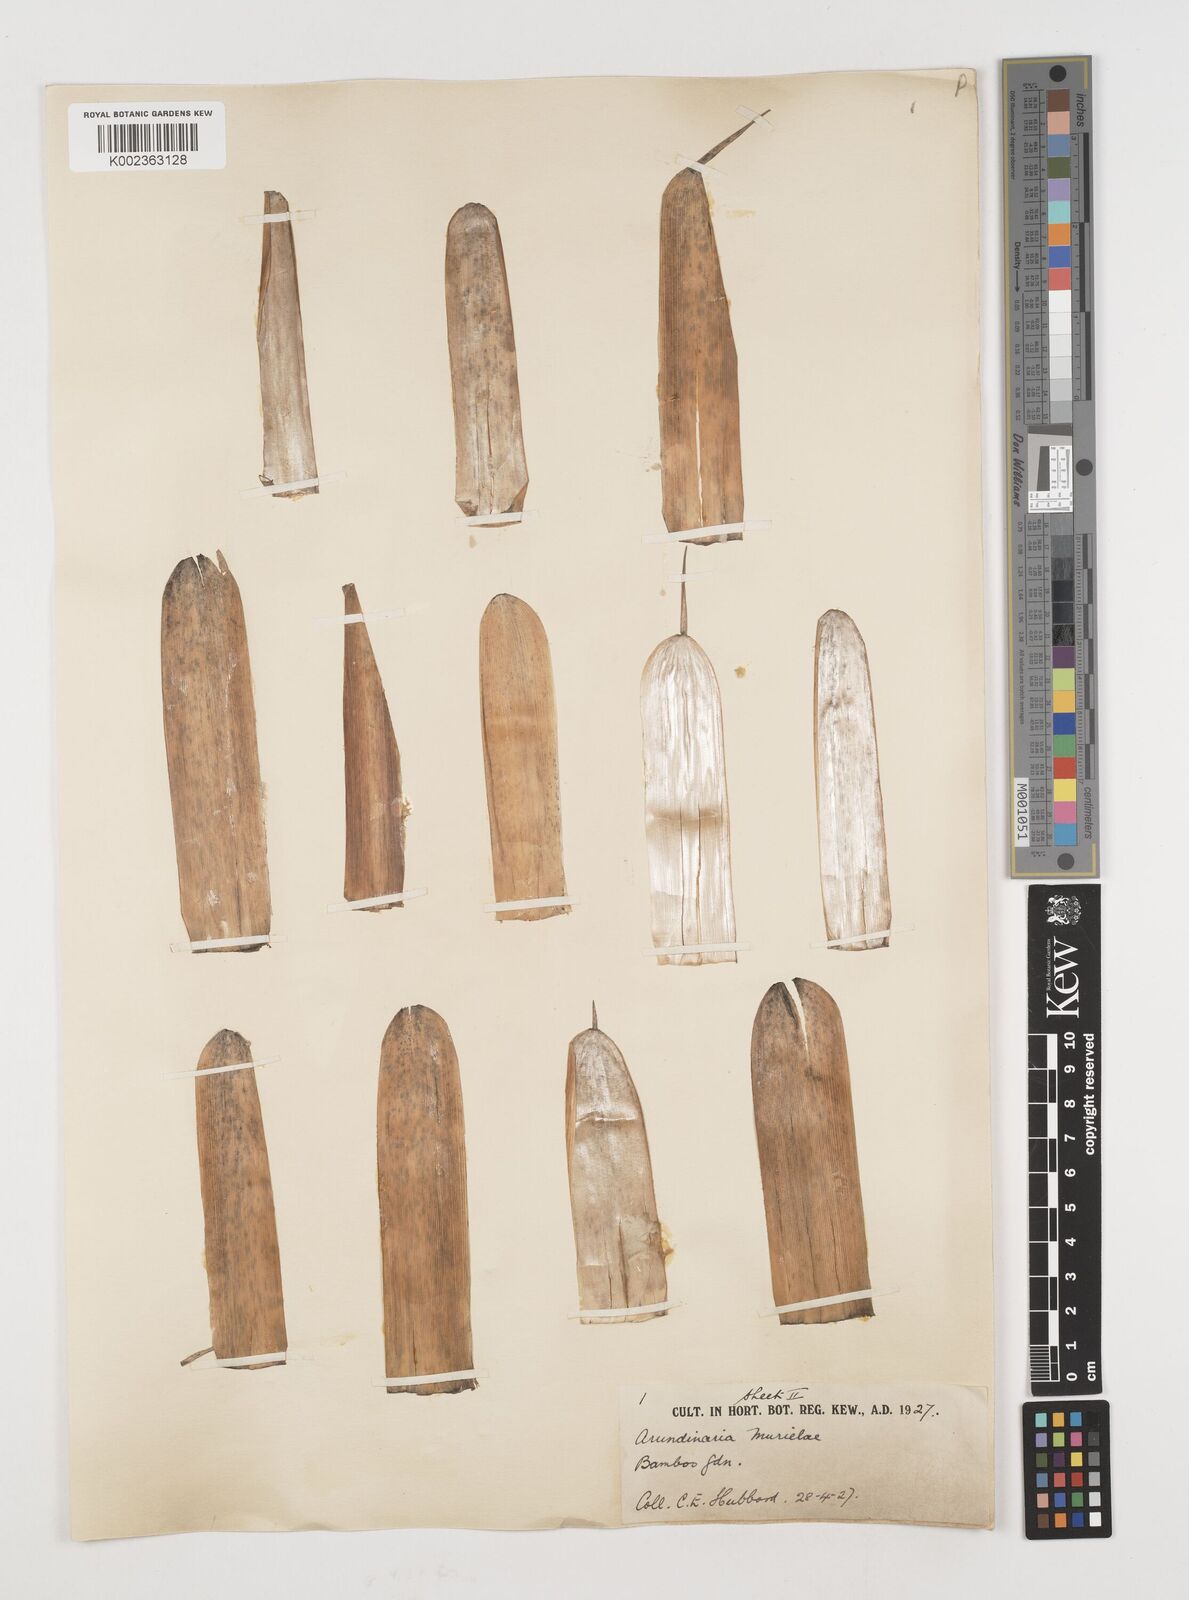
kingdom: Plantae
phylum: Tracheophyta
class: Liliopsida
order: Poales
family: Poaceae
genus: Fargesia
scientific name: Fargesia murielae
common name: Umbrella bamboo
